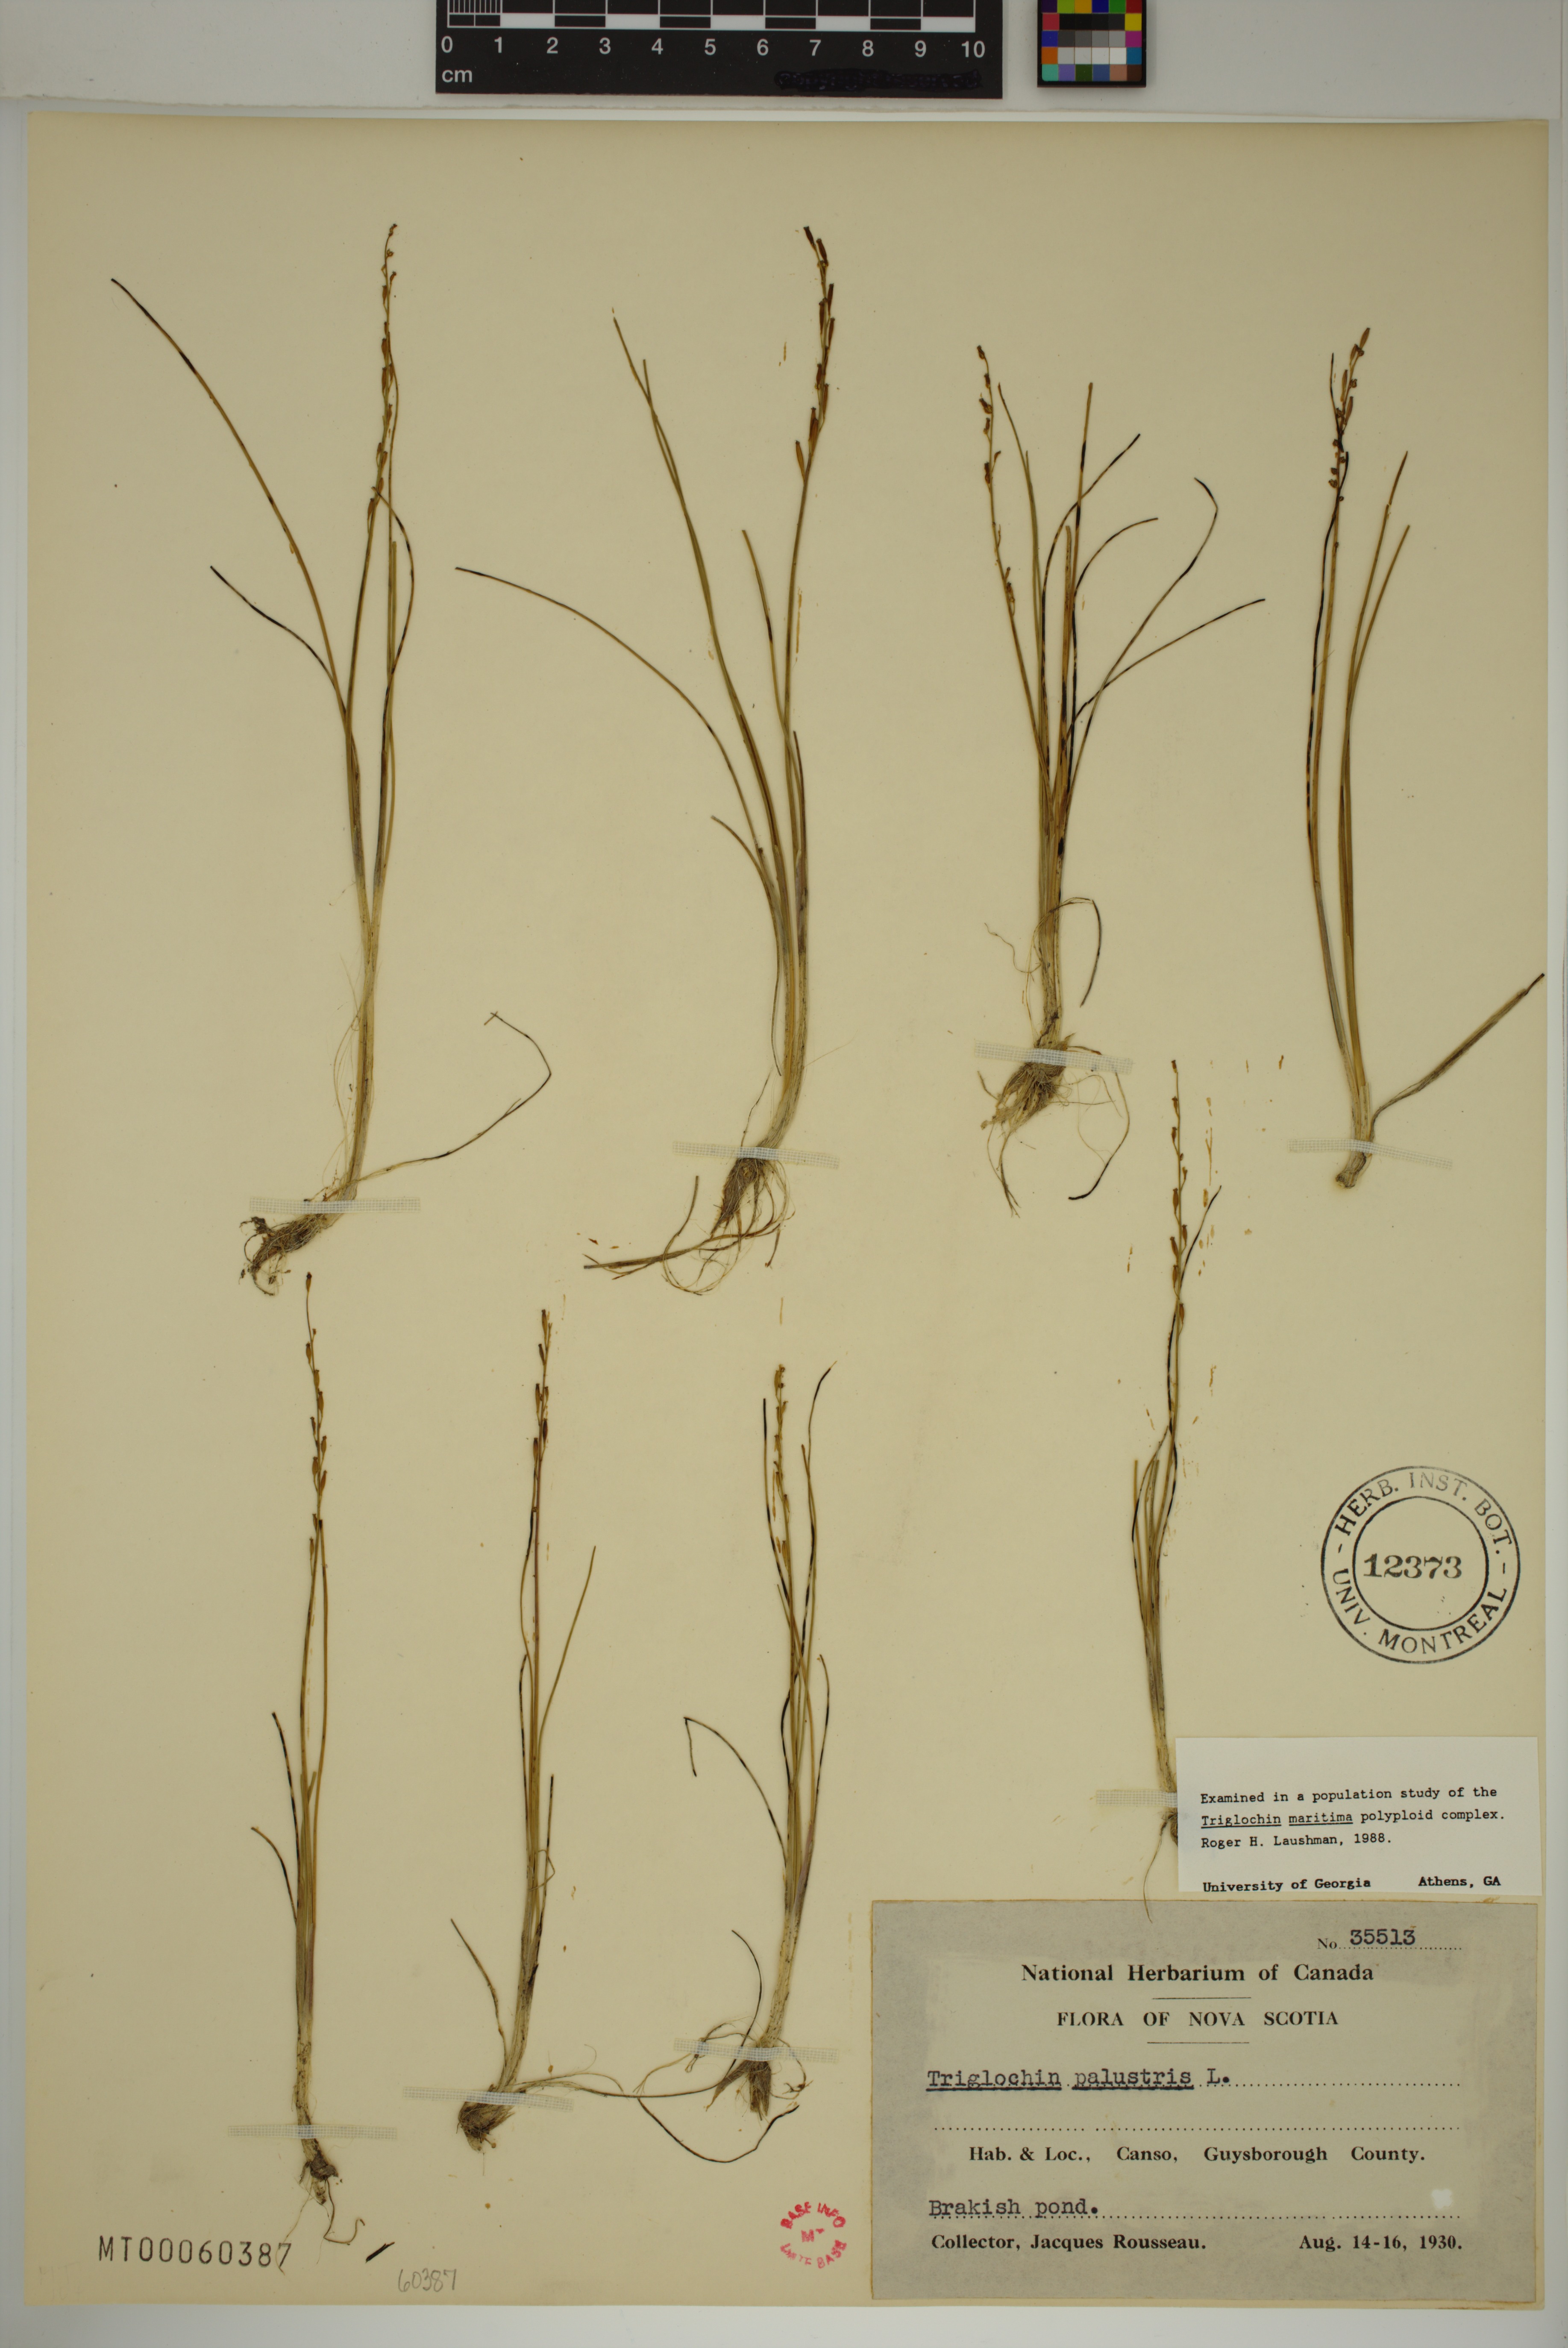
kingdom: Plantae
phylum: Tracheophyta
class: Liliopsida
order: Alismatales
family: Juncaginaceae
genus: Triglochin
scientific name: Triglochin palustris
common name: Marsh arrowgrass
